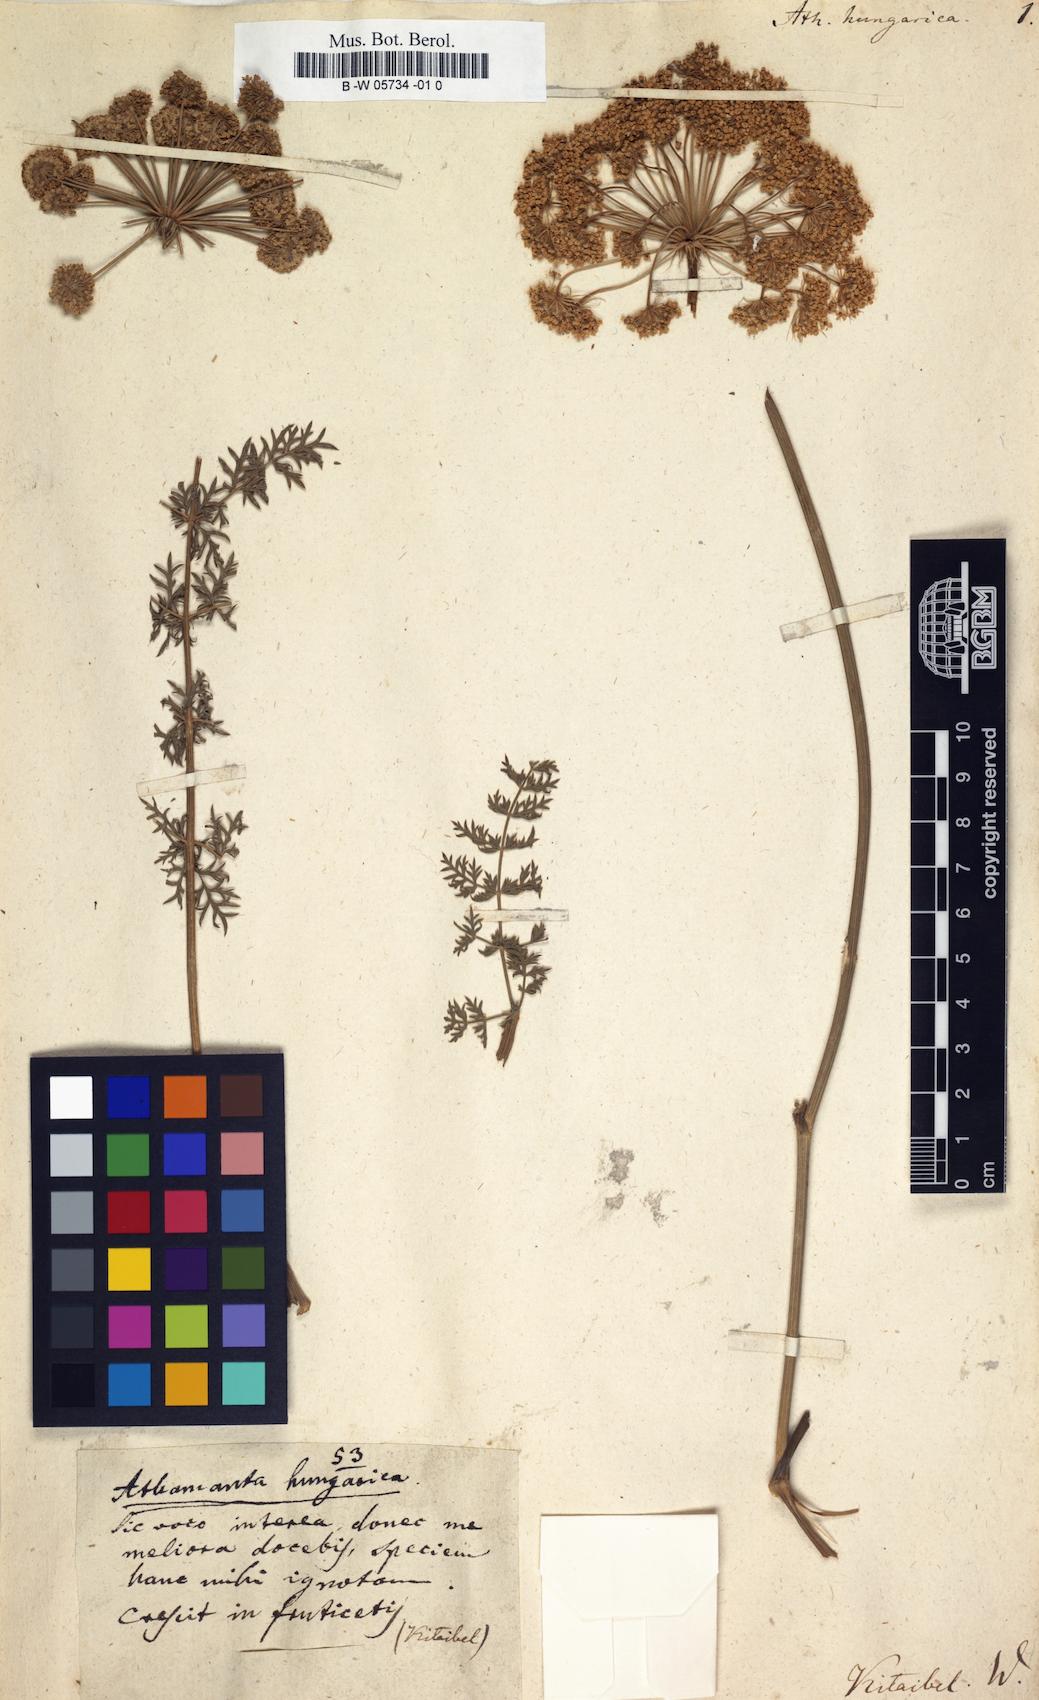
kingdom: Plantae
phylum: Tracheophyta
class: Magnoliopsida
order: Apiales
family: Apiaceae
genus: Athamanta
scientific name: Athamanta turbith
